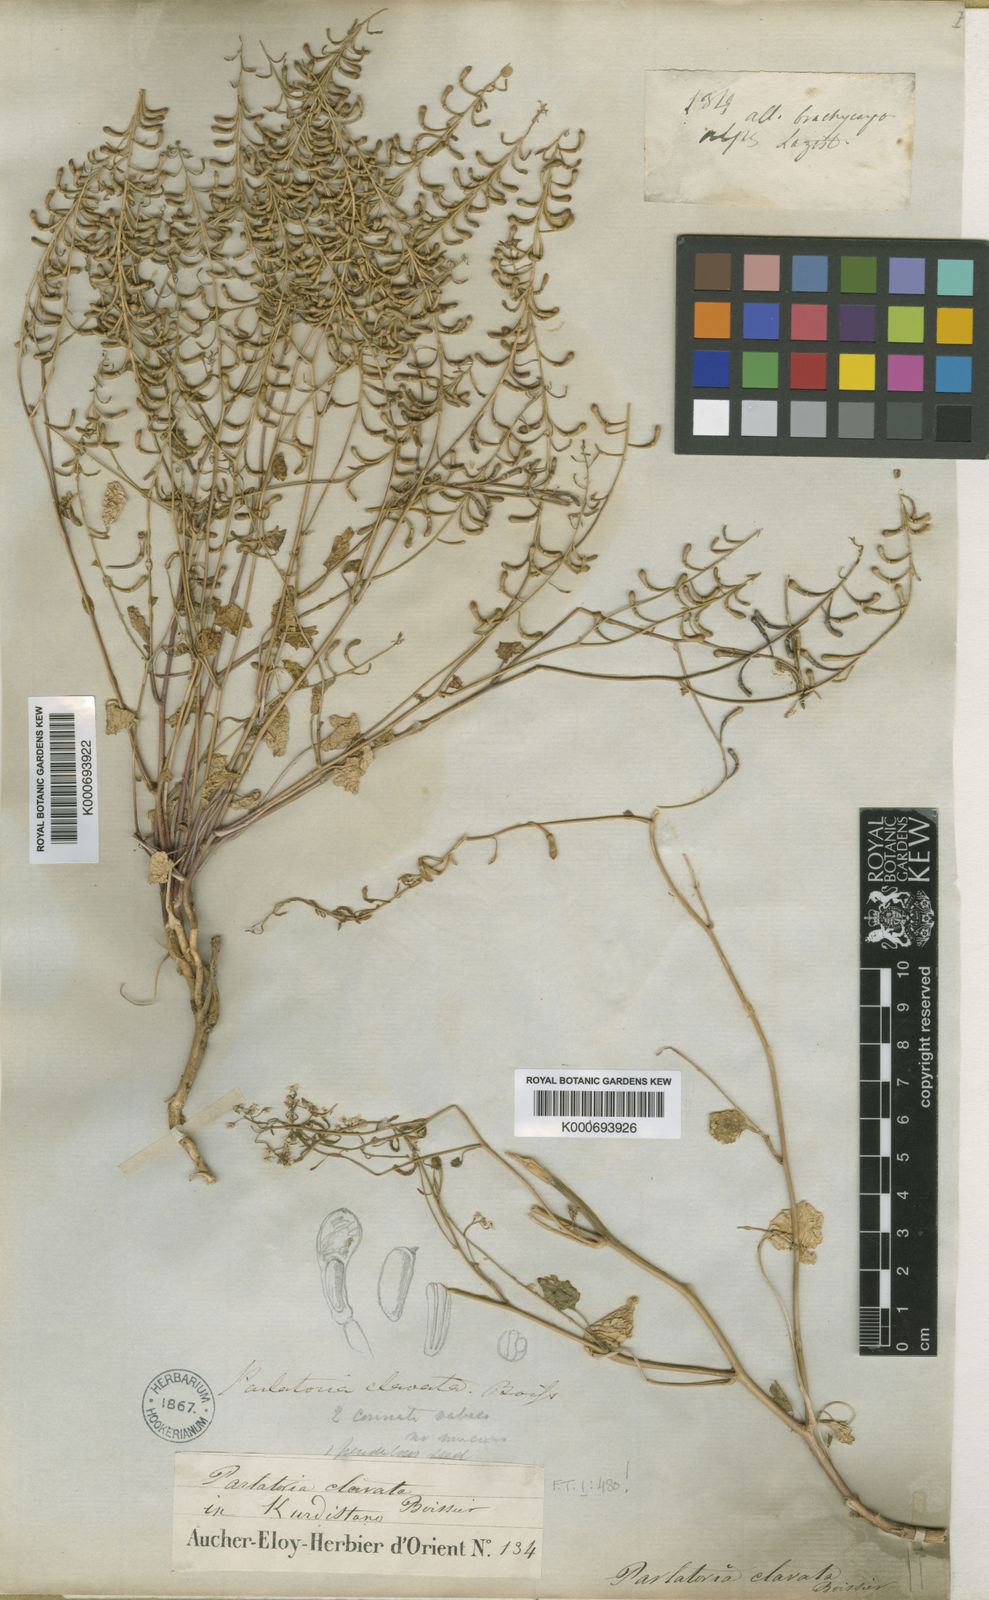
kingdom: Plantae
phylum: Tracheophyta
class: Magnoliopsida
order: Brassicales
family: Brassicaceae
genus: Sobolewskia
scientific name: Sobolewskia
